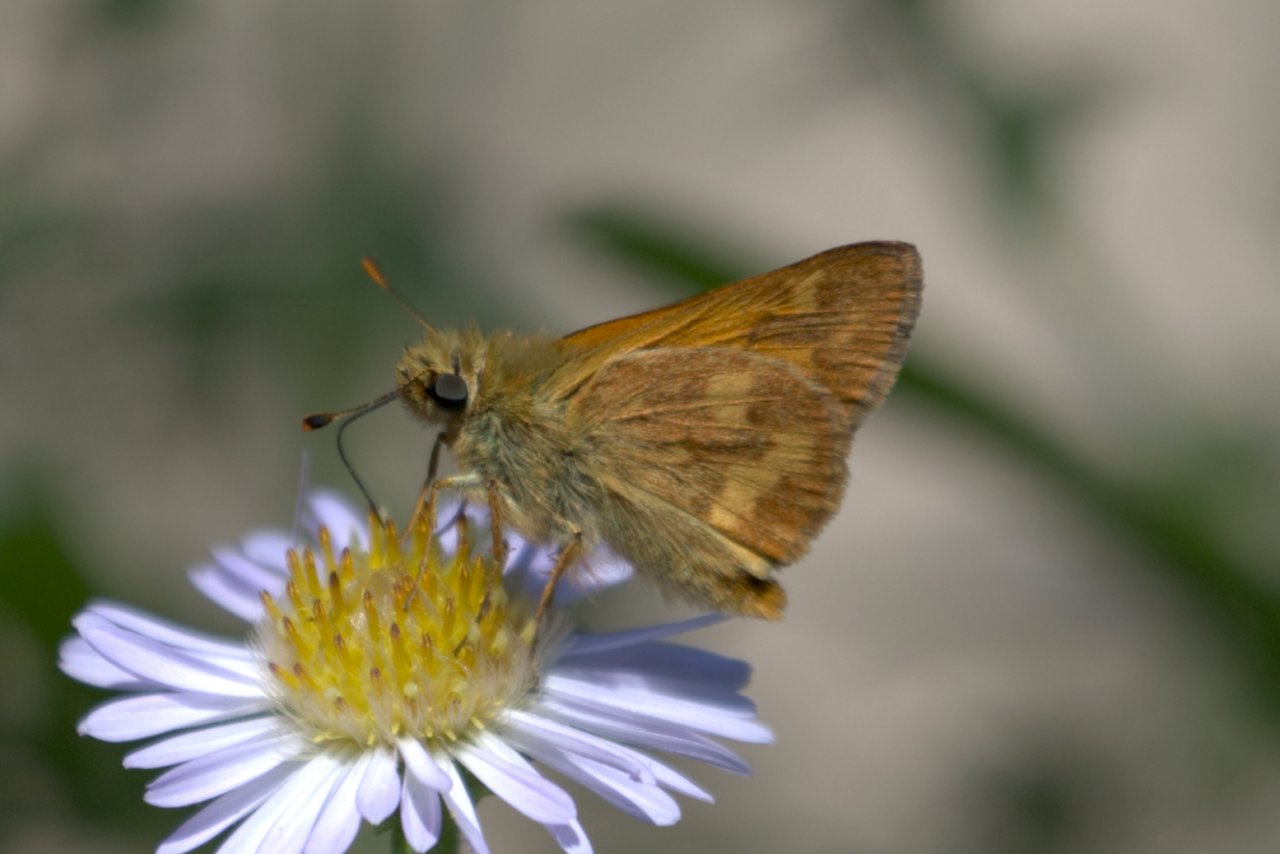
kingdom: Animalia
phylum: Arthropoda
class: Insecta
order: Lepidoptera
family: Hesperiidae
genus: Ochlodes
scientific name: Ochlodes sylvanoides
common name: Woodland Skipper
